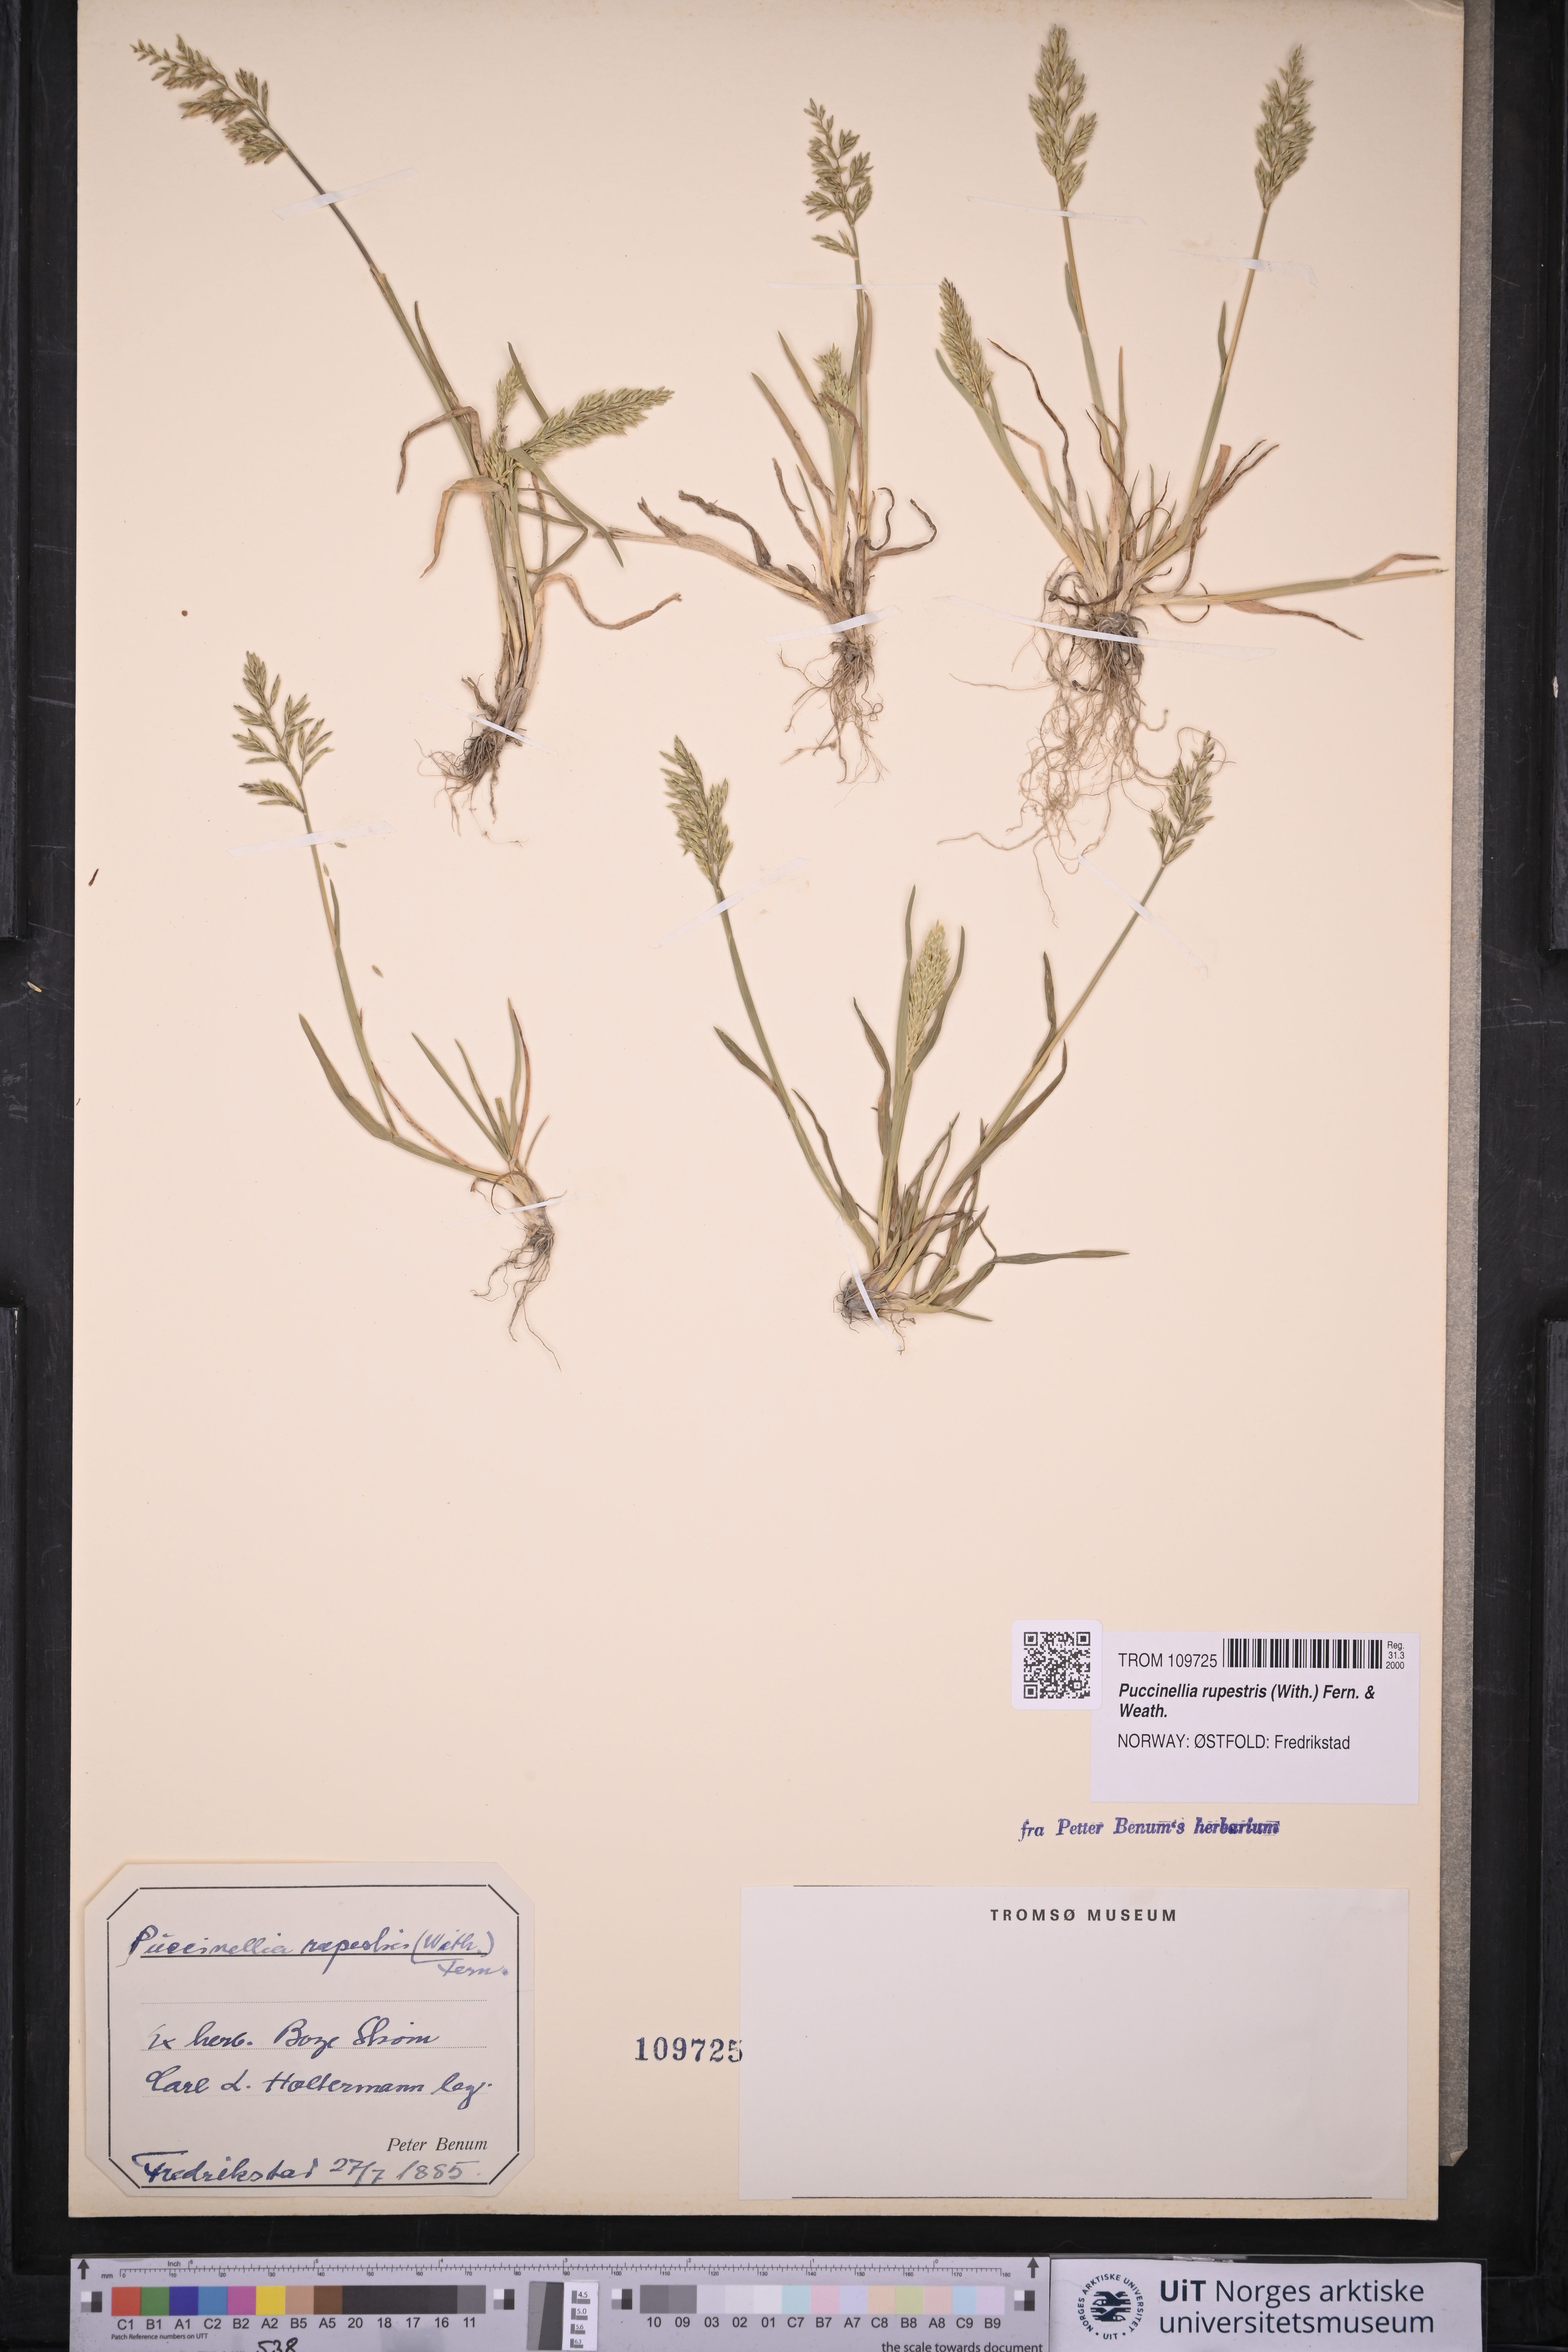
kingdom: Plantae
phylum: Tracheophyta
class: Liliopsida
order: Poales
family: Poaceae
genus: Puccinellia
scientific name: Puccinellia rupestris
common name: Stiff saltmarsh-grass
